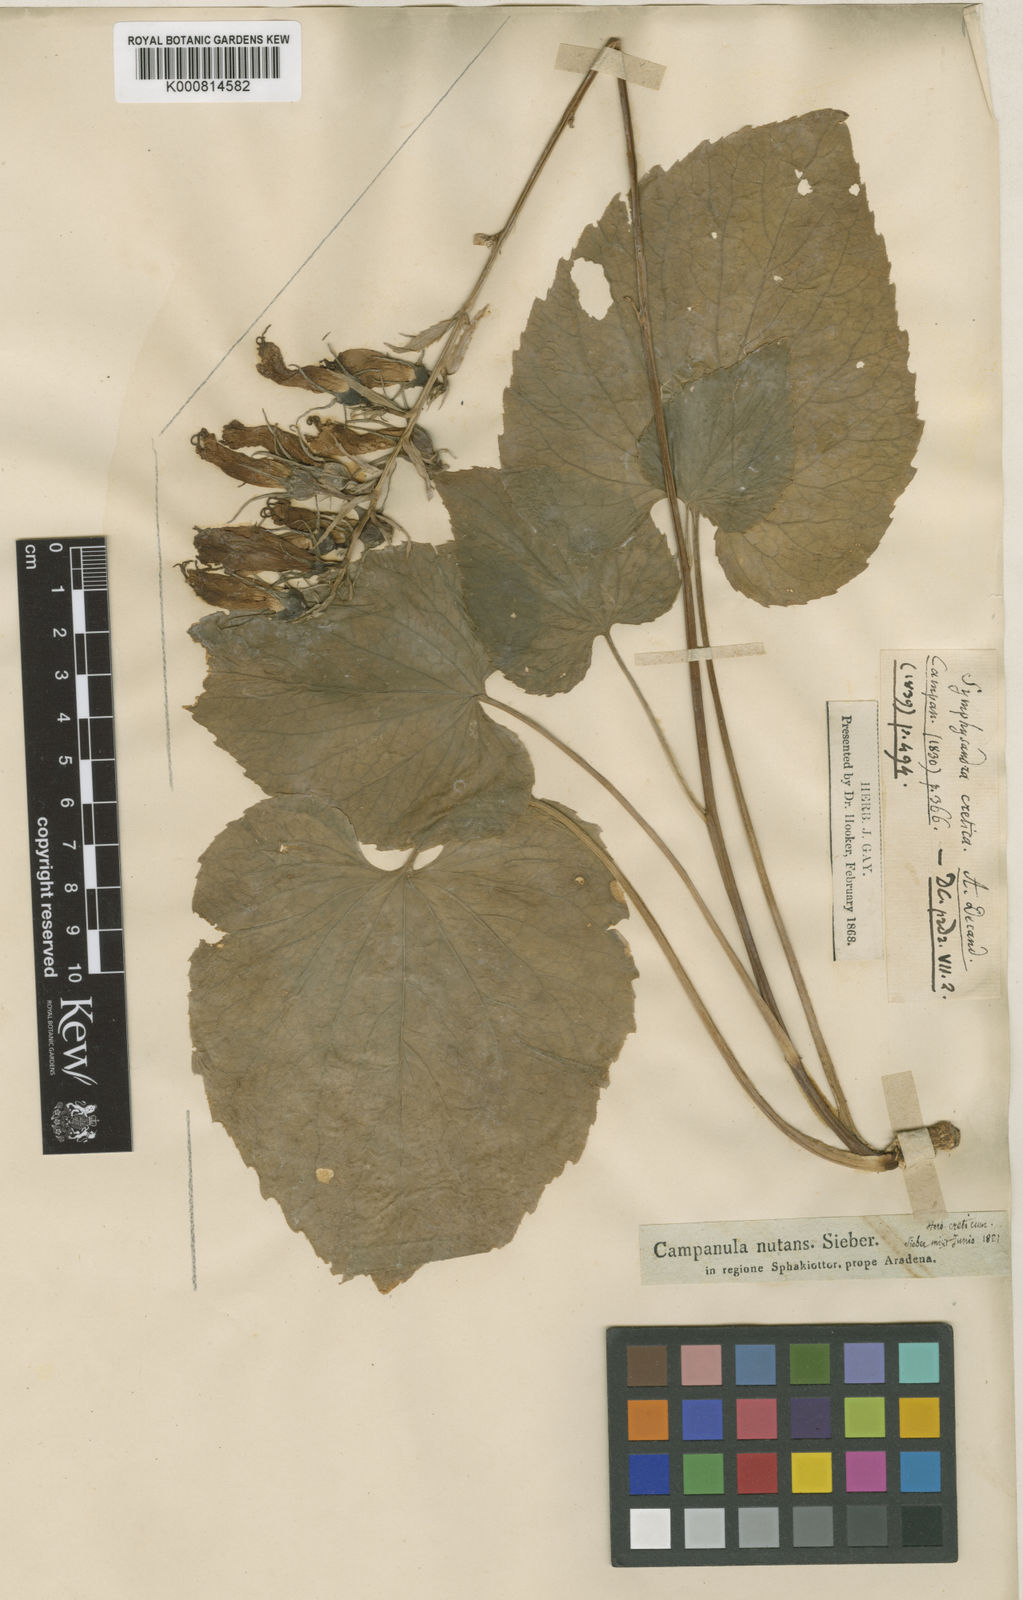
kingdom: Plantae
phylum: Tracheophyta
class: Magnoliopsida
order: Asterales
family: Campanulaceae
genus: Campanula
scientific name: Campanula cretica
